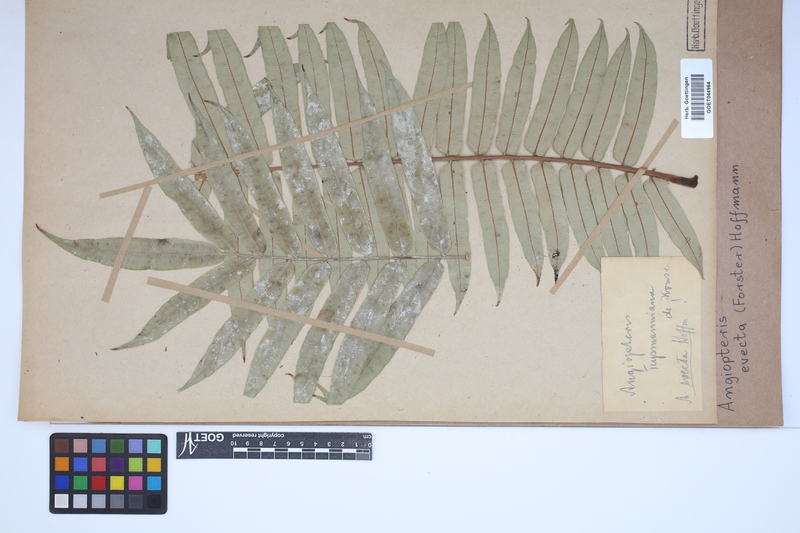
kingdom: Plantae
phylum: Tracheophyta
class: Polypodiopsida
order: Marattiales
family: Marattiaceae
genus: Angiopteris
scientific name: Angiopteris evecta
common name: Mule's-foot fern
